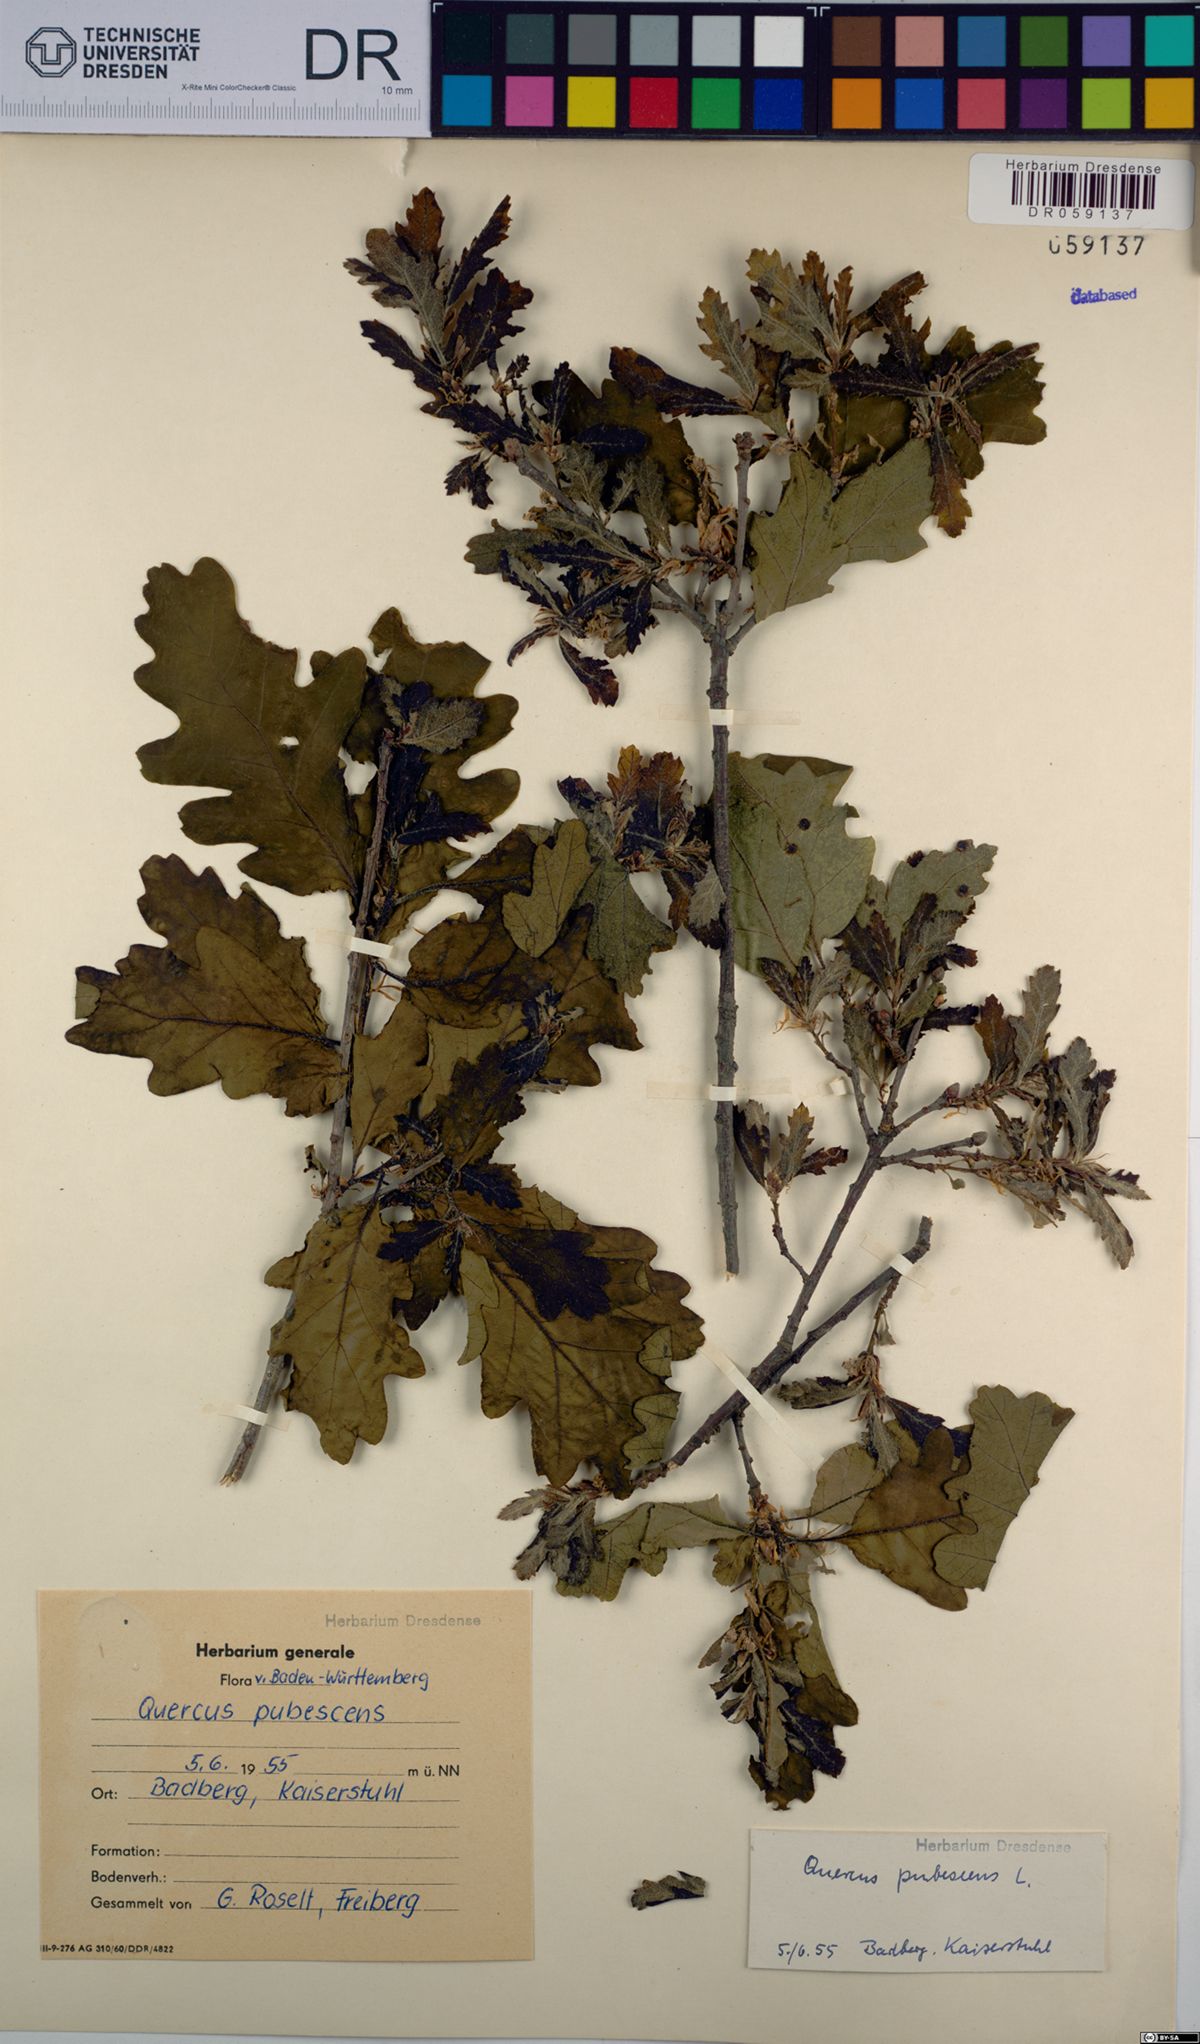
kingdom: Plantae
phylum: Tracheophyta
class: Magnoliopsida
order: Fagales
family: Fagaceae
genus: Quercus
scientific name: Quercus pubescens
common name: Downy oak
